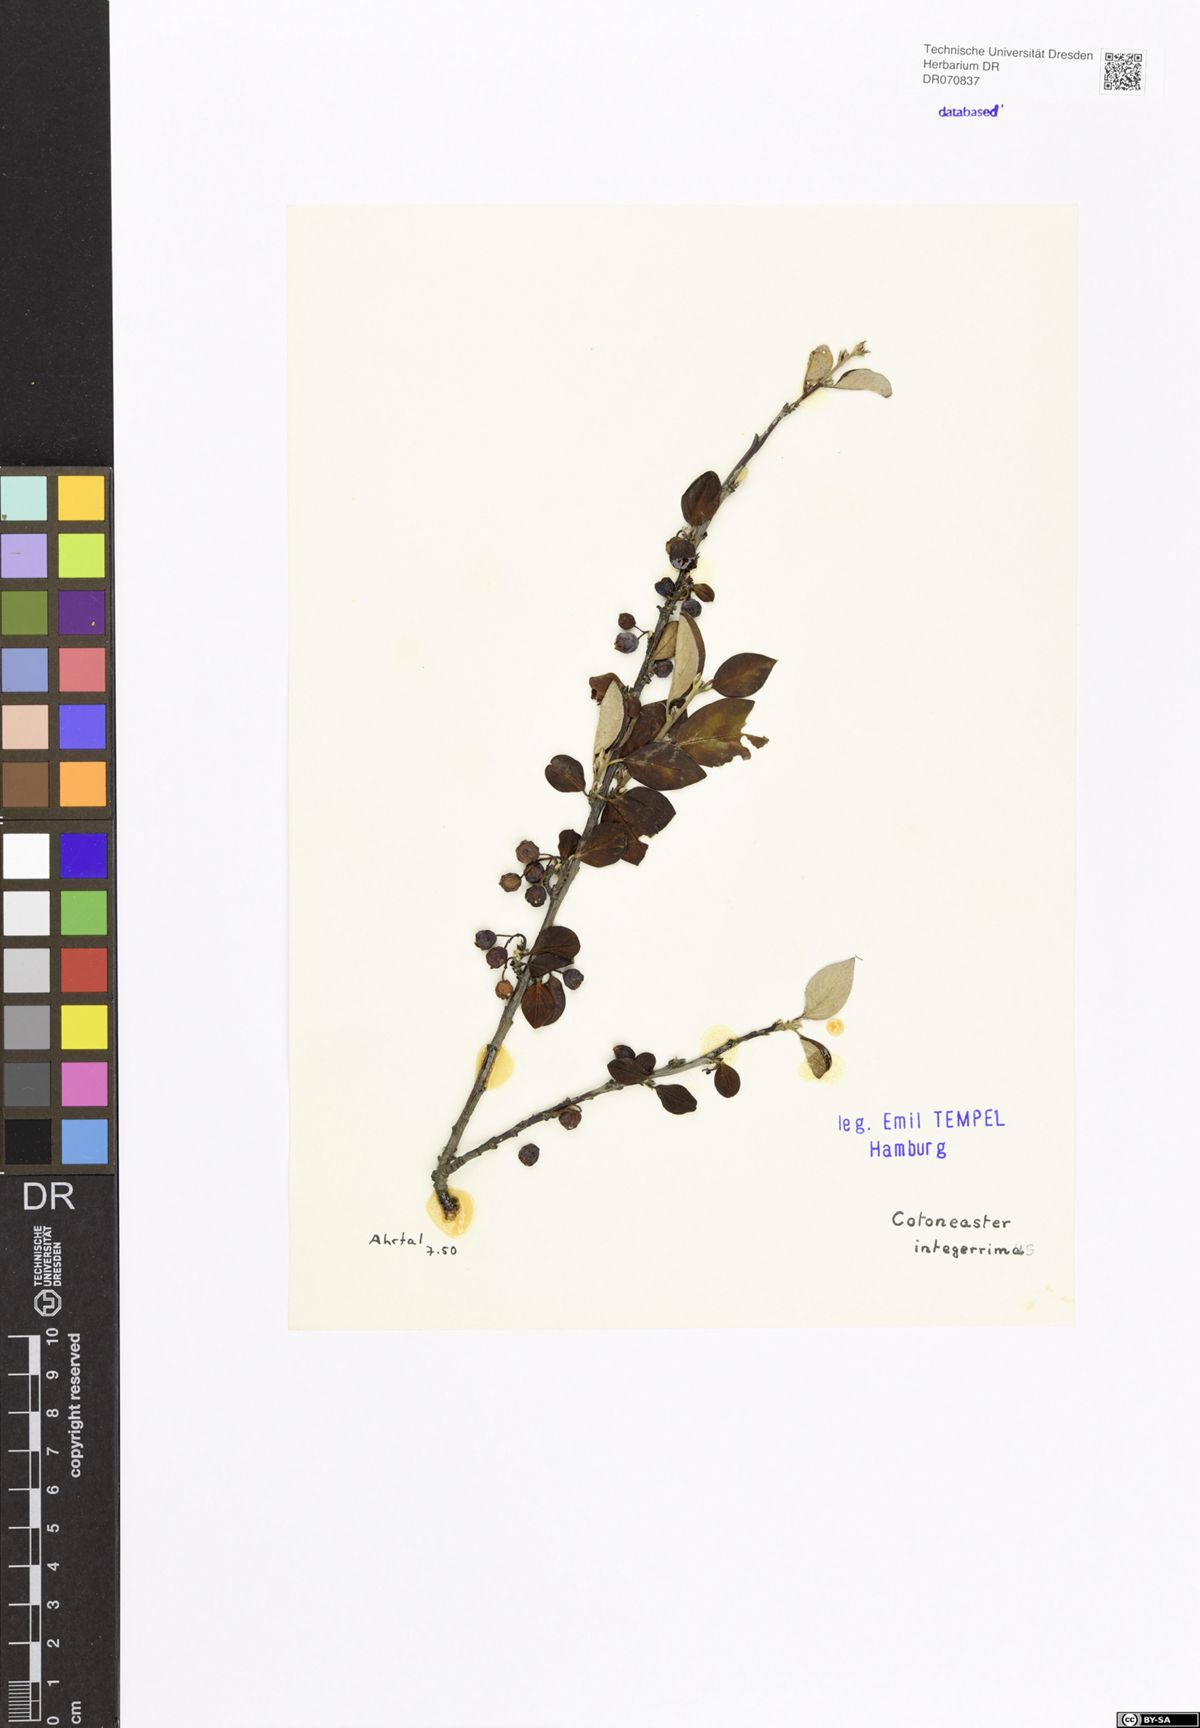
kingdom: Plantae
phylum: Tracheophyta
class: Magnoliopsida
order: Rosales
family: Rosaceae
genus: Cotoneaster
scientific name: Cotoneaster integerrimus
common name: Wild cotoneaster
